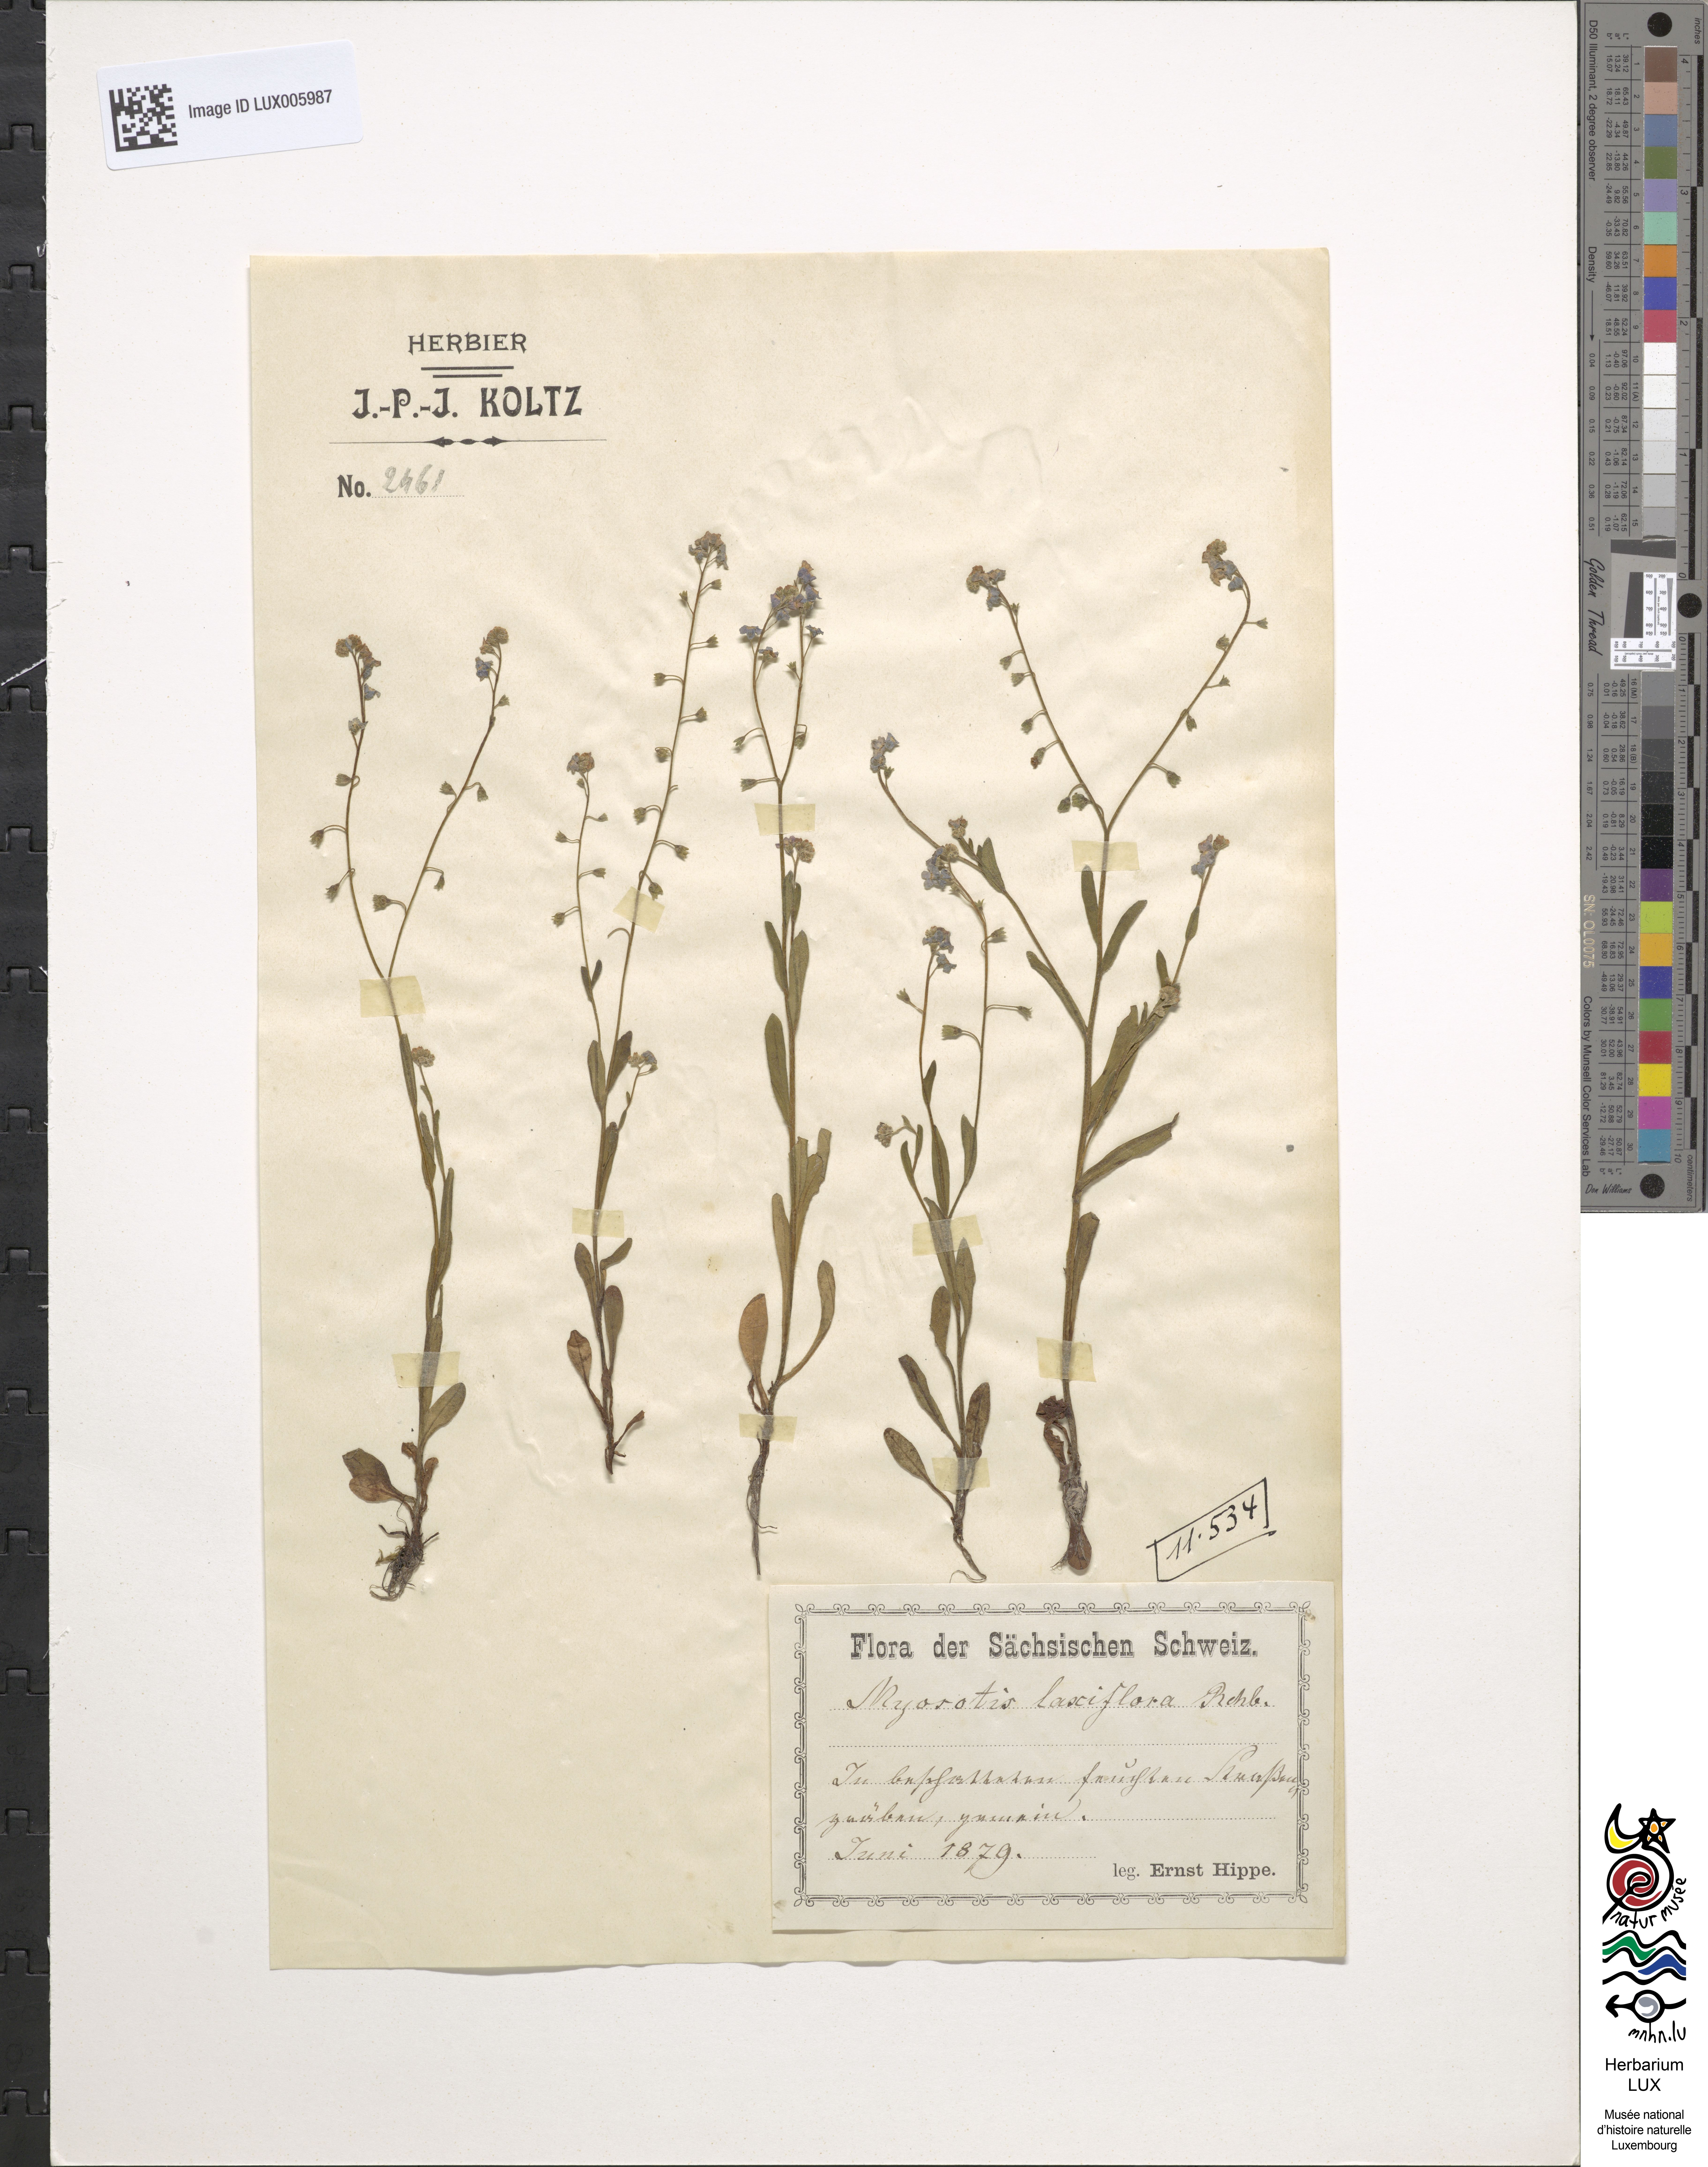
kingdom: Plantae
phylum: Tracheophyta
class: Magnoliopsida
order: Boraginales
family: Boraginaceae
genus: Myosotis
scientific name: Myosotis nemorosa
